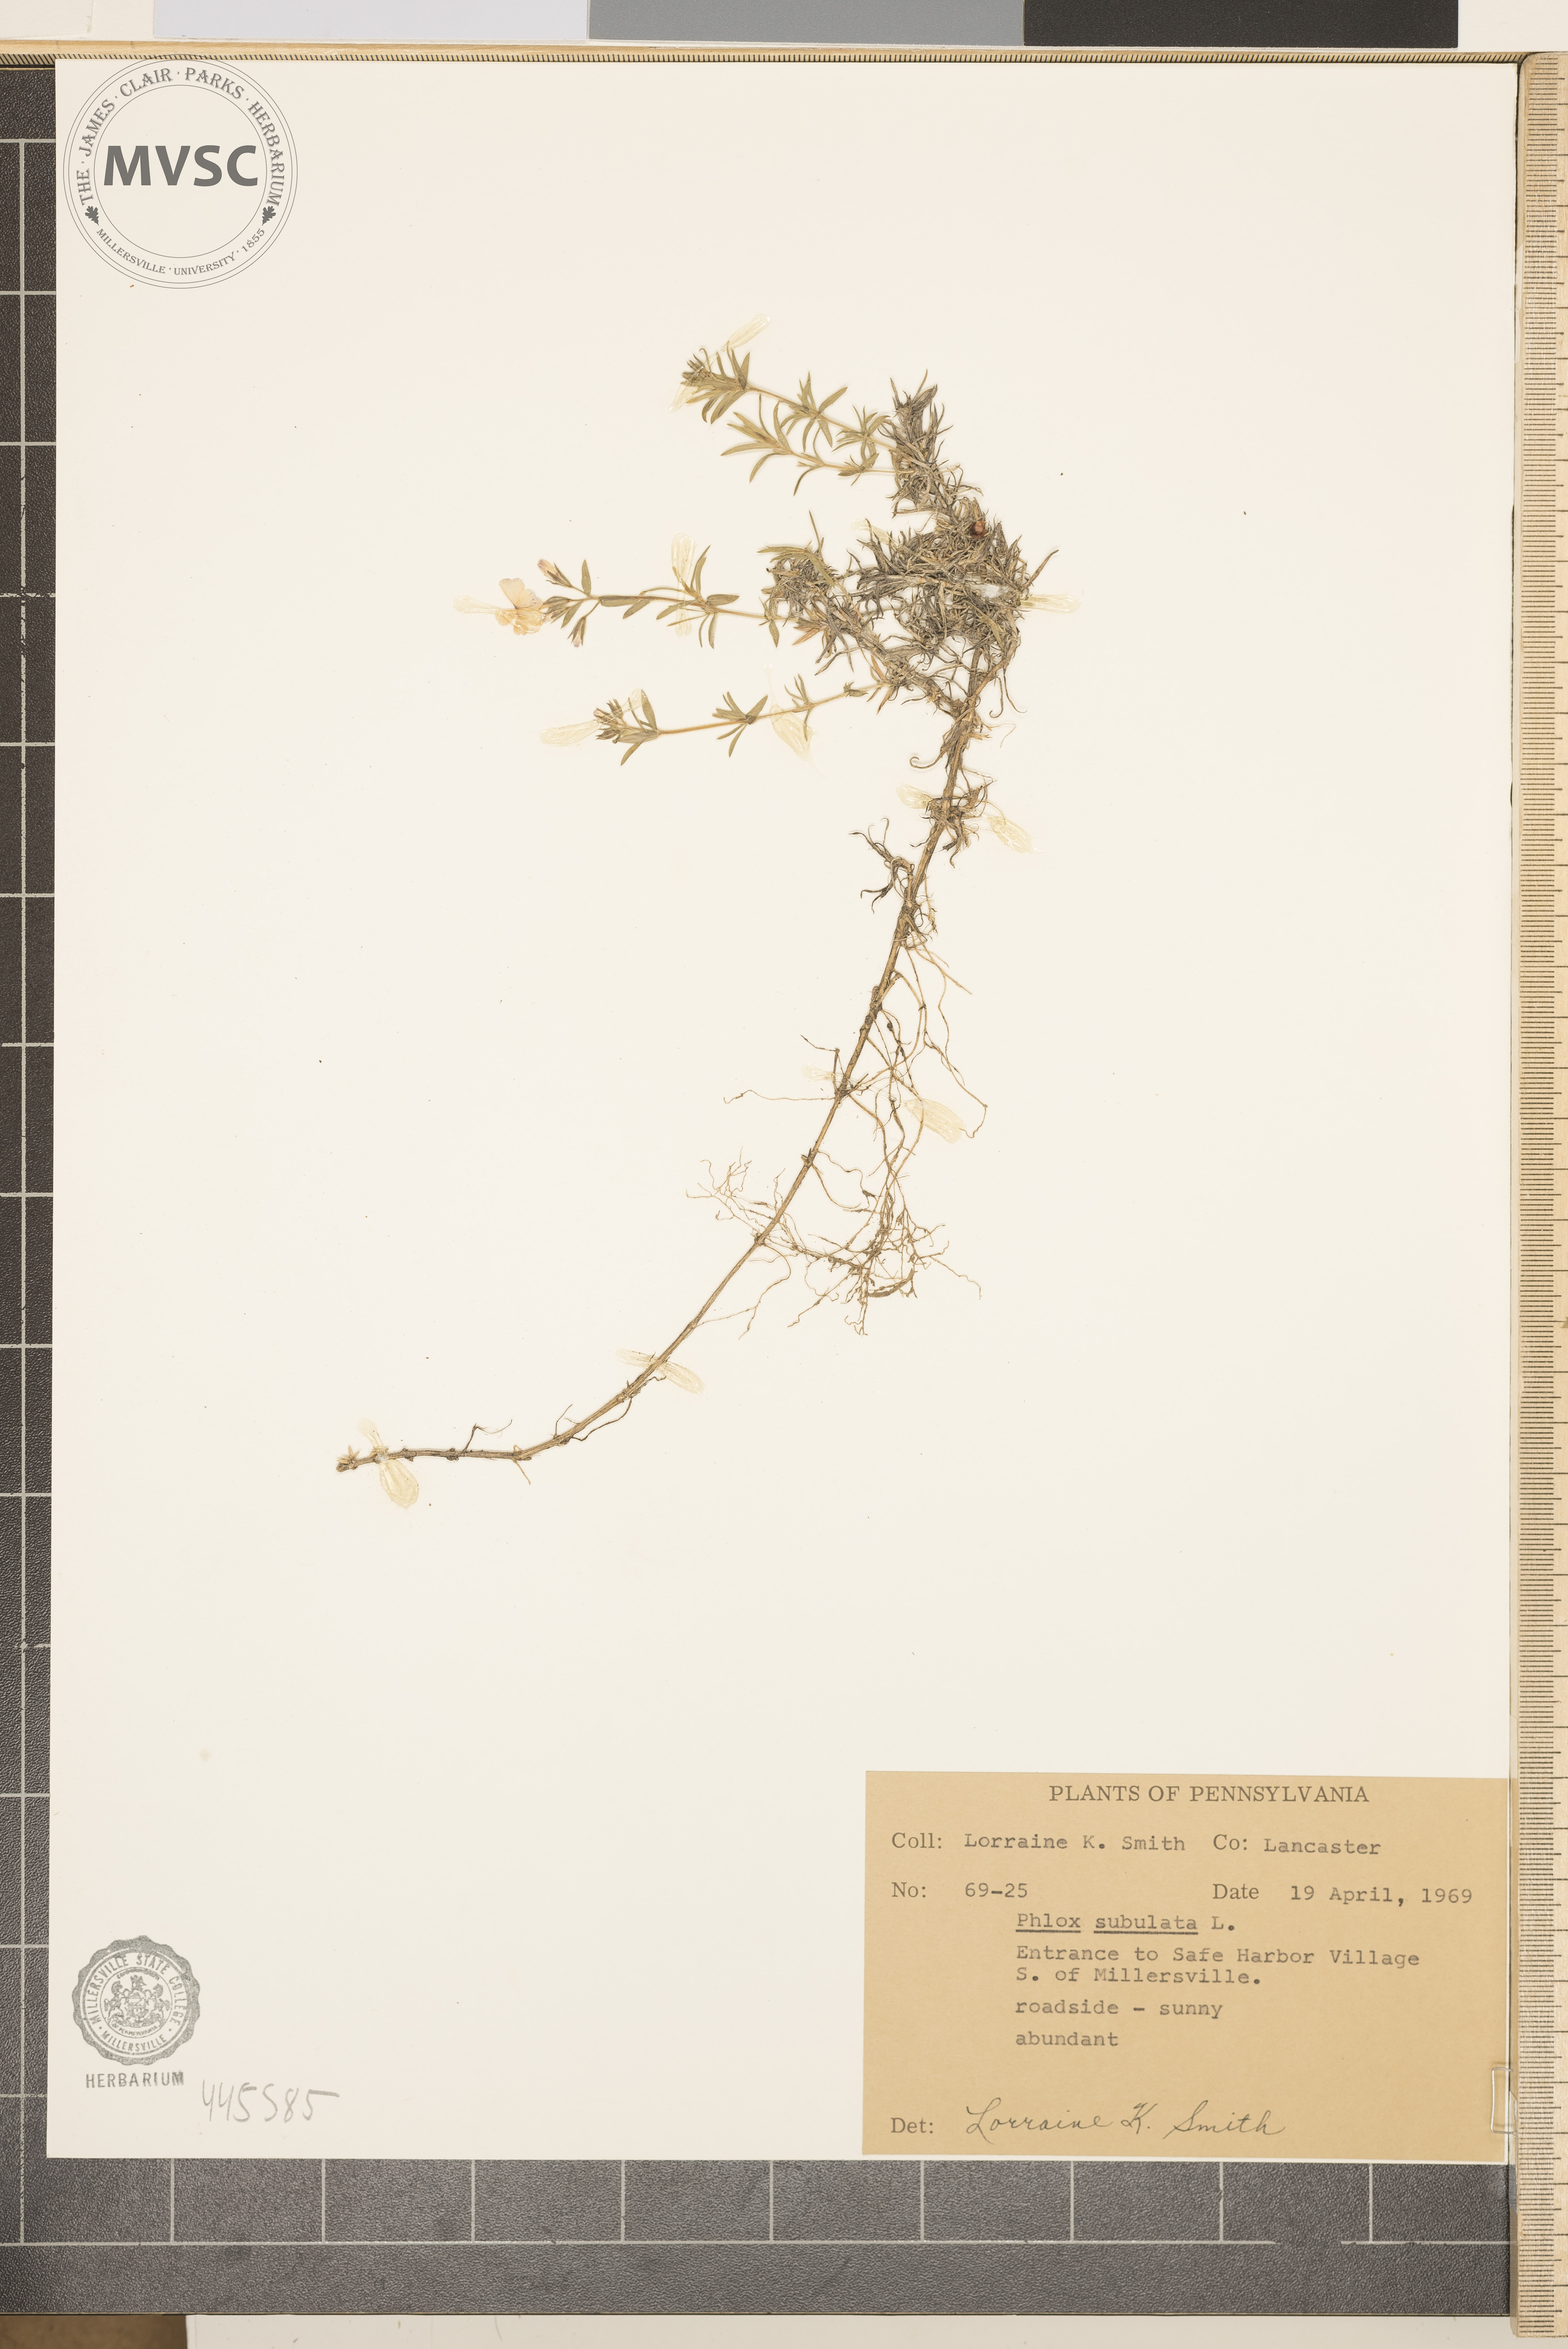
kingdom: Plantae
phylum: Tracheophyta
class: Magnoliopsida
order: Ericales
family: Polemoniaceae
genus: Phlox
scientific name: Phlox subulata
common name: Moss phlox
